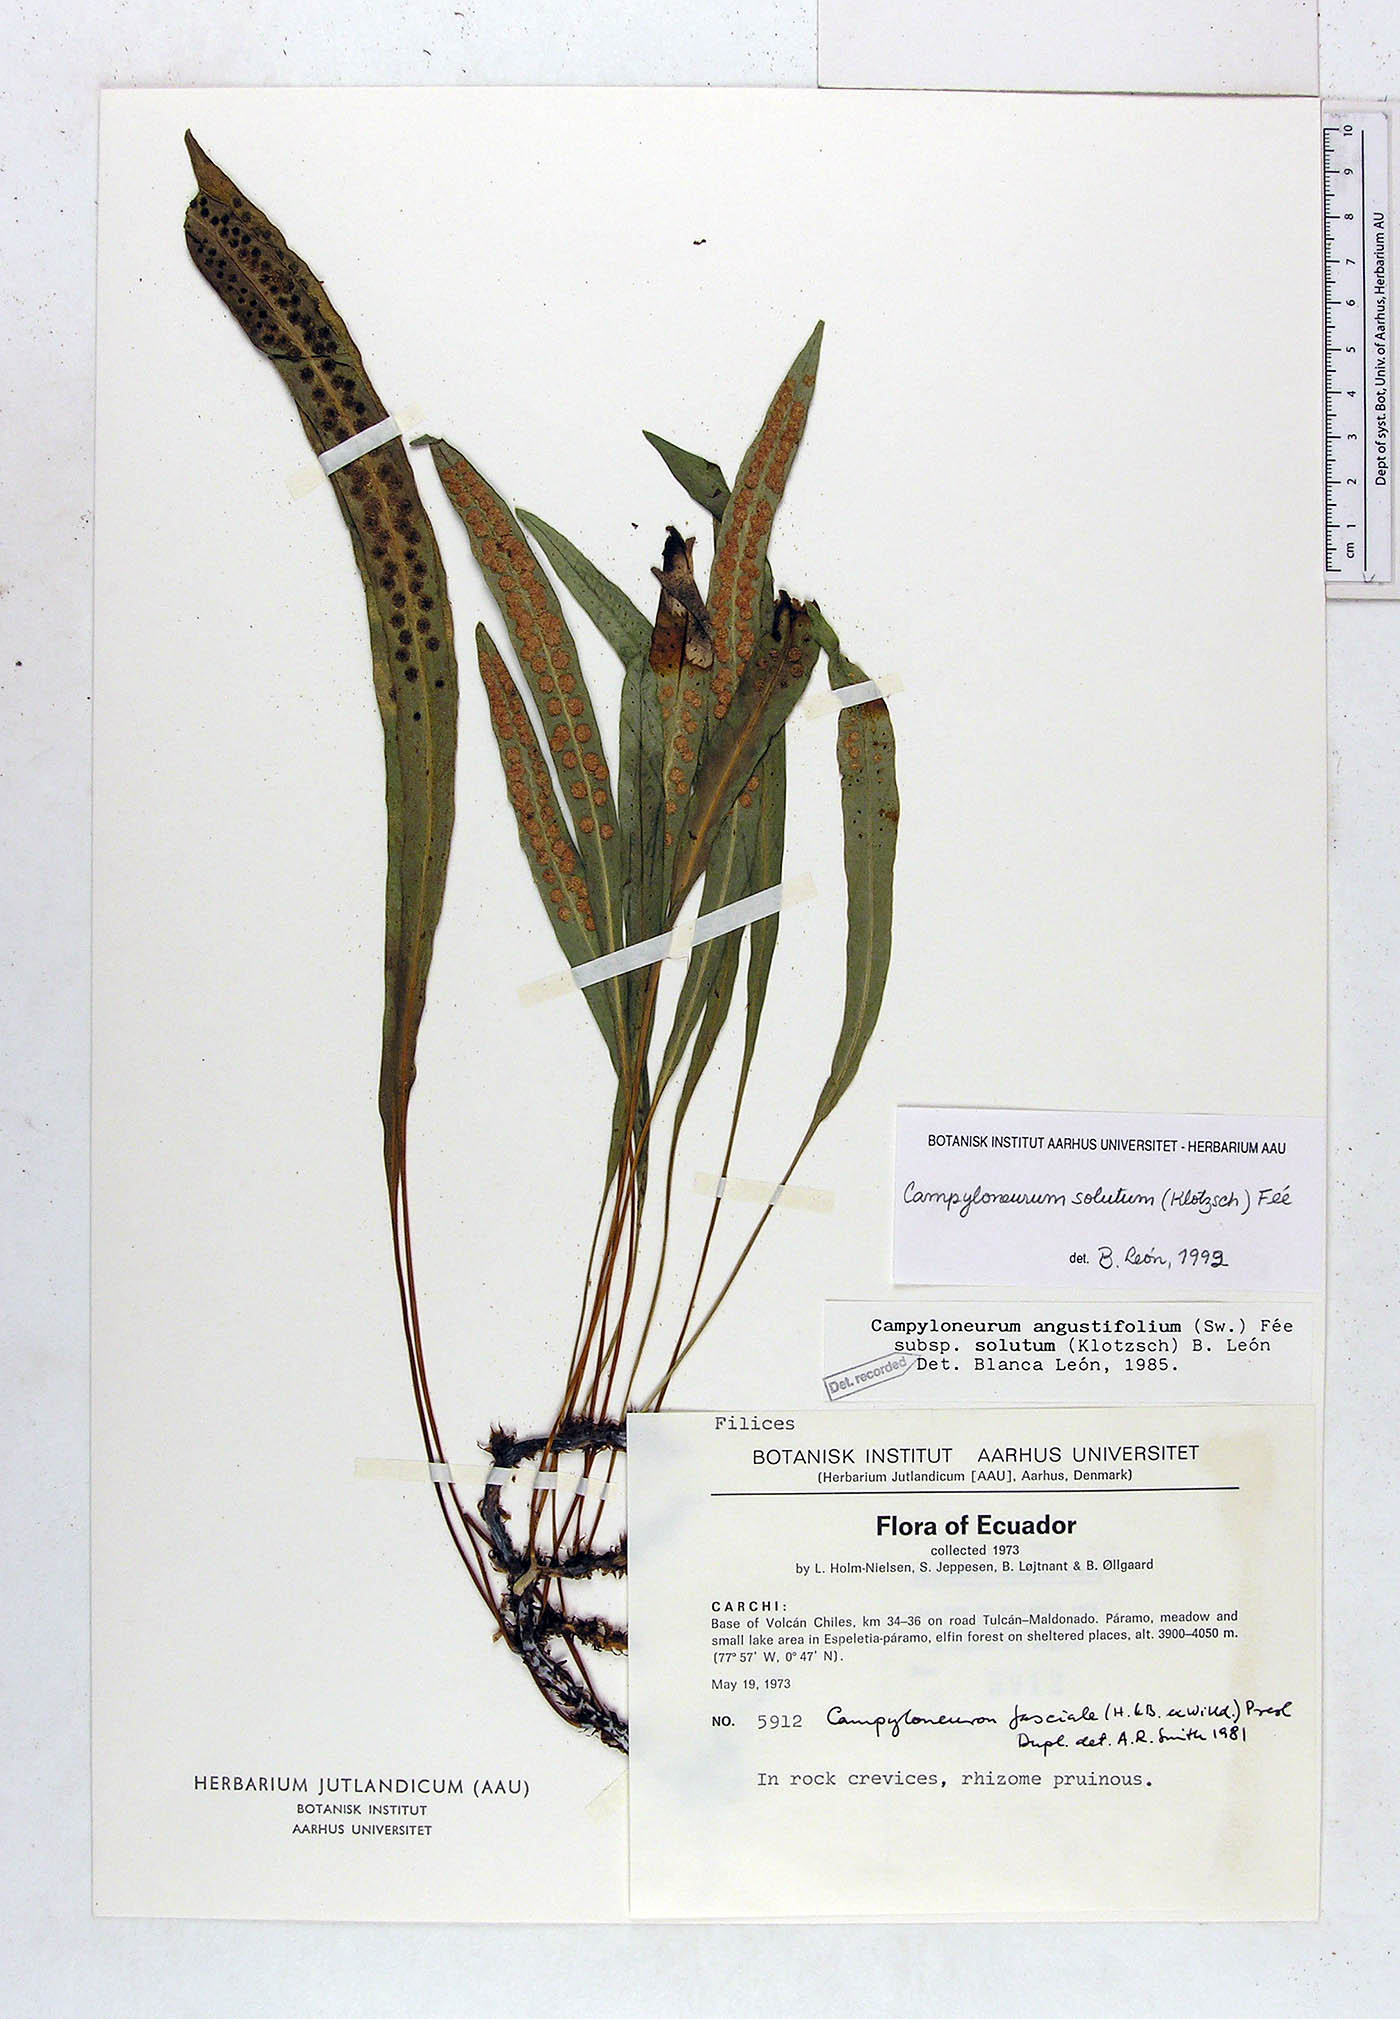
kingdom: Plantae
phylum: Tracheophyta
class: Polypodiopsida
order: Polypodiales
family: Polypodiaceae
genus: Campyloneurum
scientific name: Campyloneurum solutum
